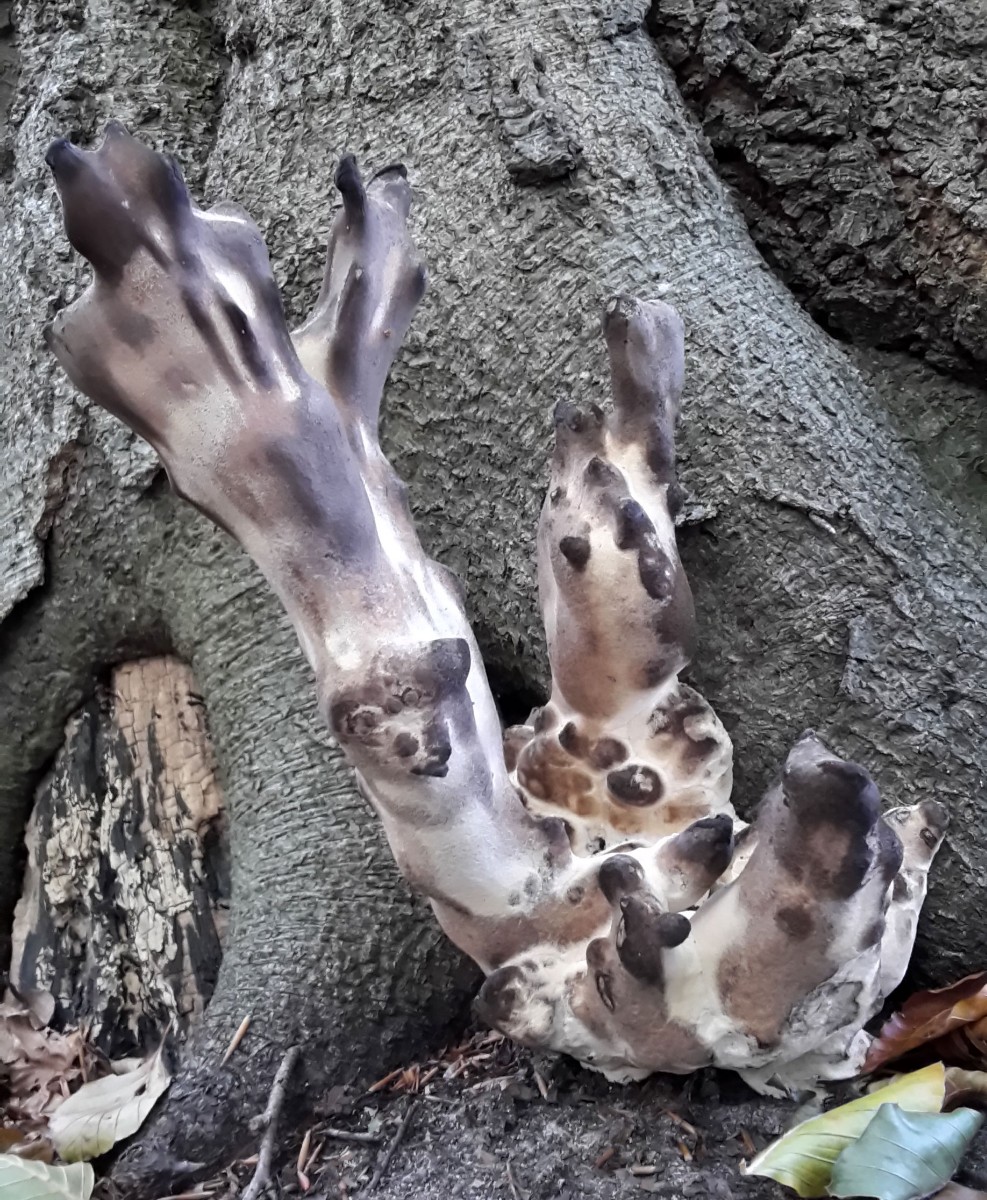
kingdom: Fungi
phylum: Basidiomycota
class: Agaricomycetes
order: Polyporales
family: Meripilaceae
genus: Meripilus
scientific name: Meripilus giganteus
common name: kæmpeporesvamp
